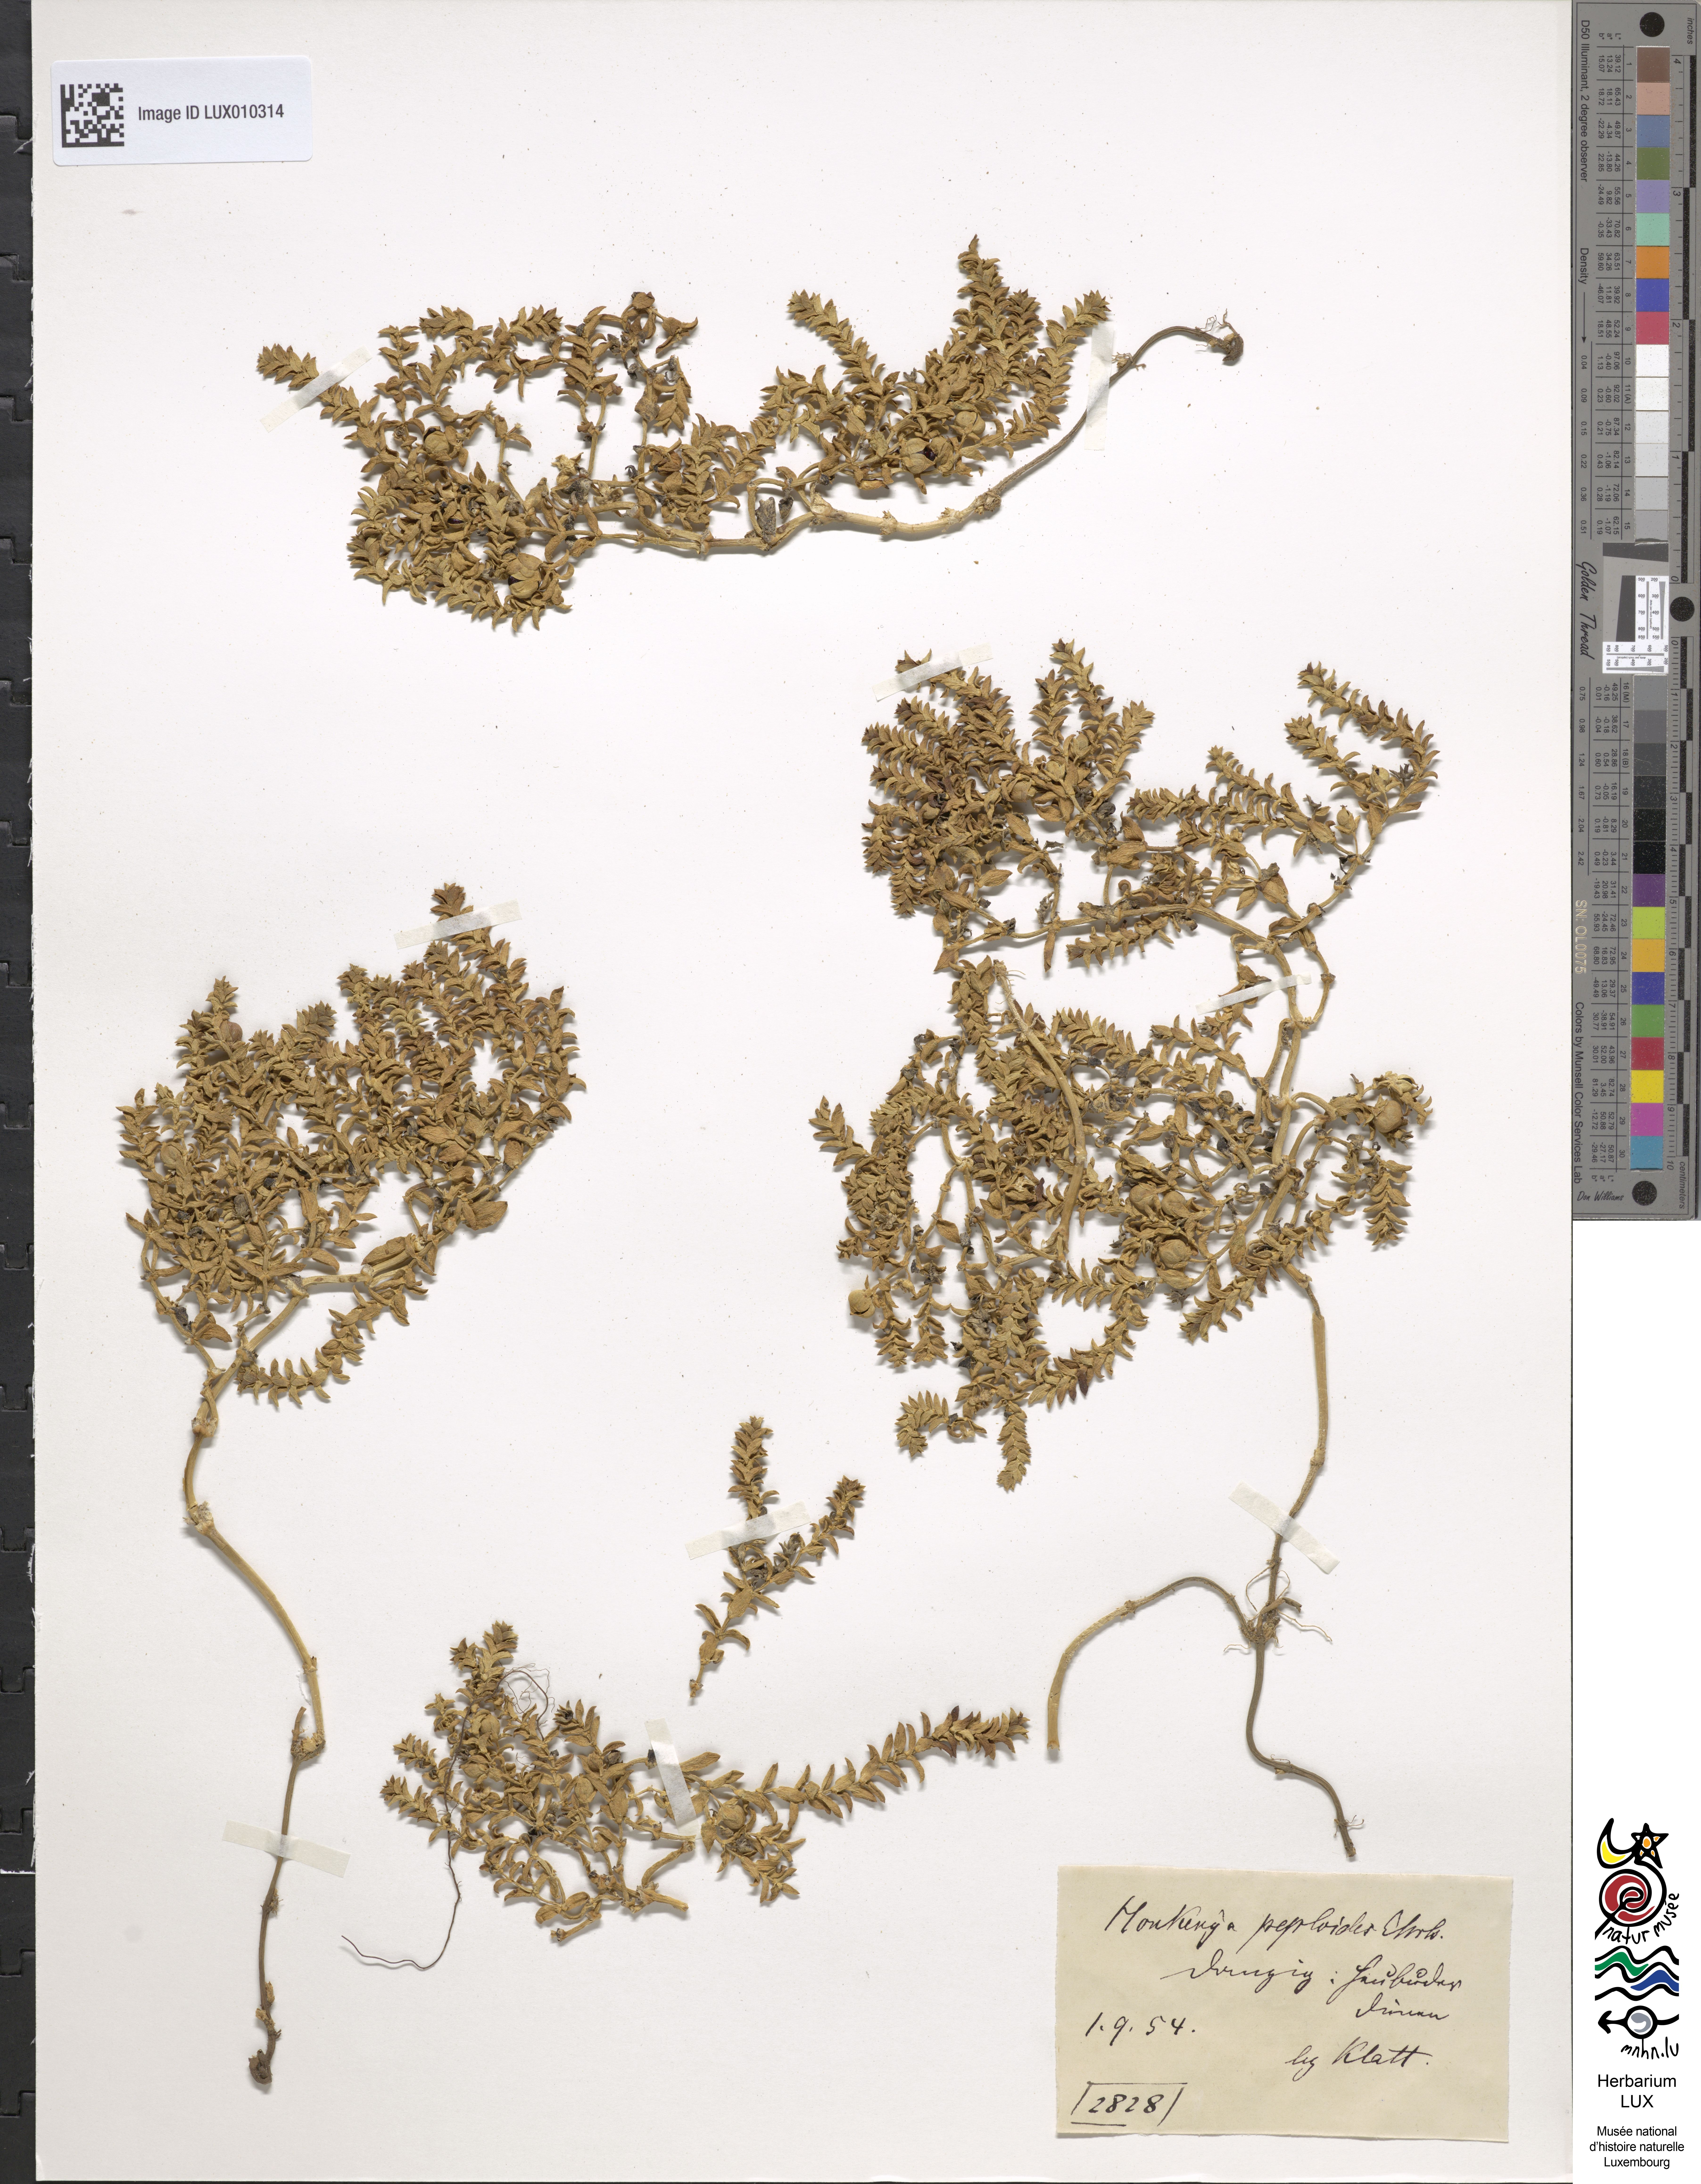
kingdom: Plantae
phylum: Tracheophyta
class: Magnoliopsida
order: Caryophyllales
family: Caryophyllaceae
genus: Honckenya
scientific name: Honckenya peploides
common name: Sea sandwort
